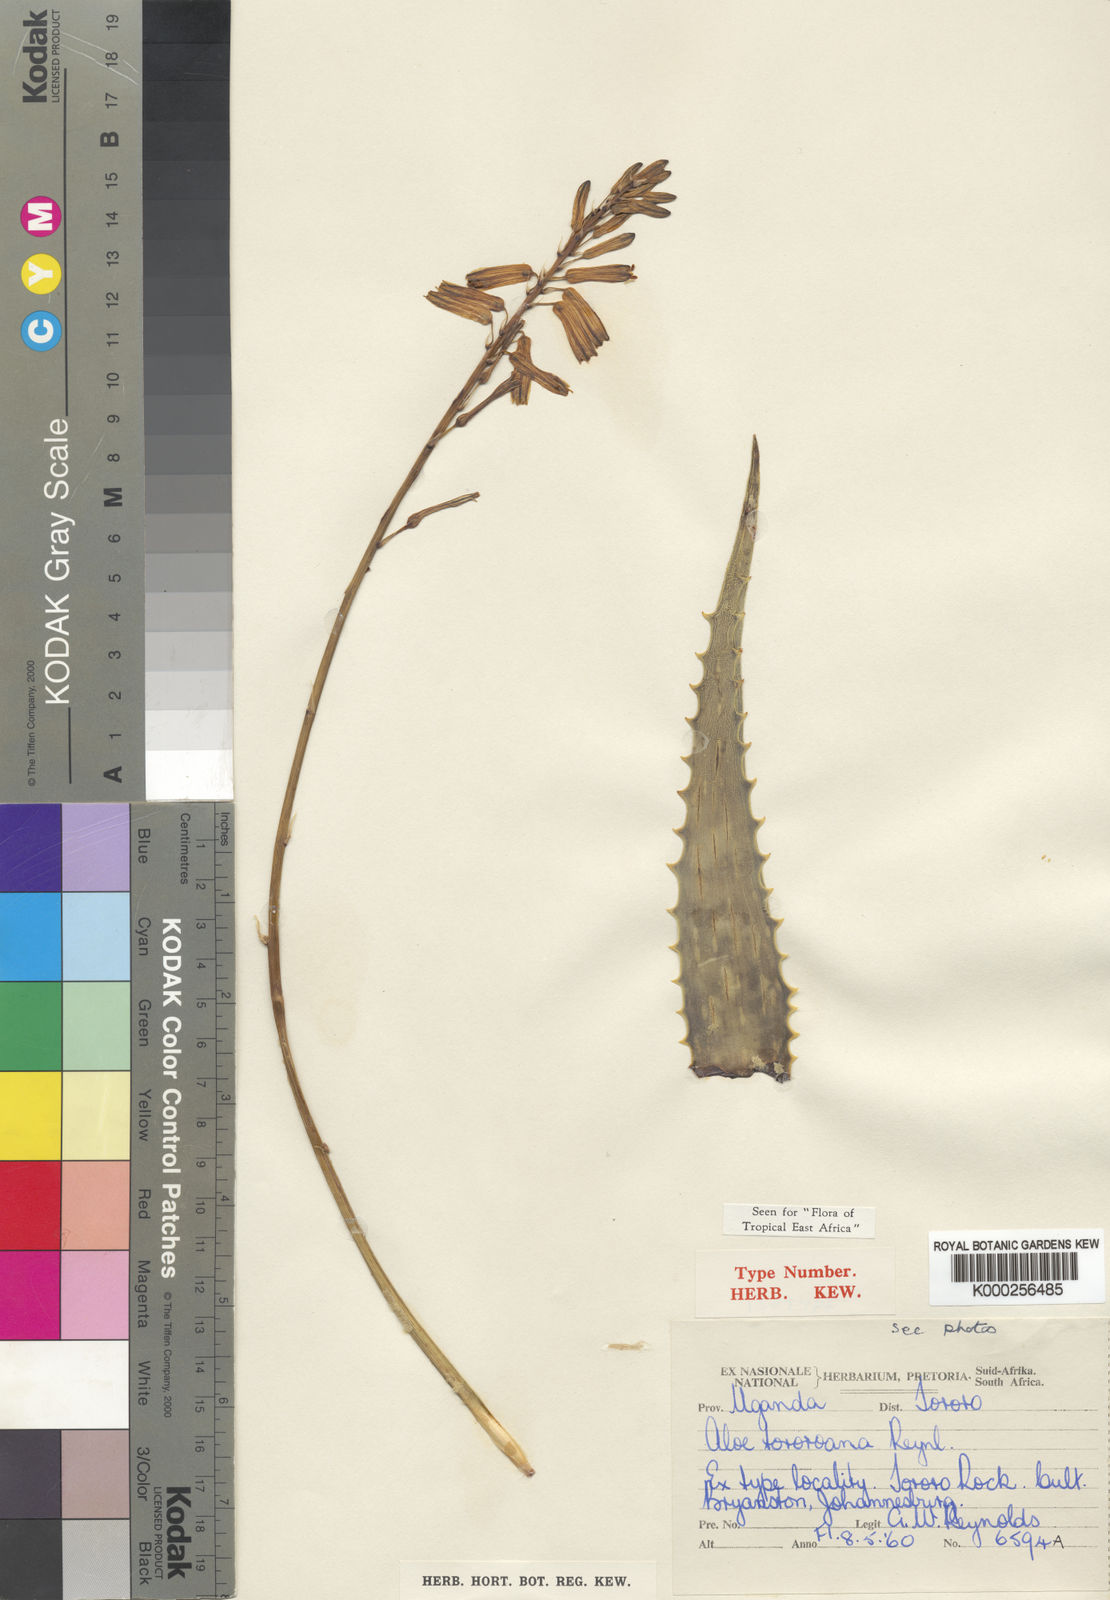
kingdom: Plantae
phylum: Tracheophyta
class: Liliopsida
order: Asparagales
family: Asphodelaceae
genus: Aloe
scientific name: Aloe tororoana
